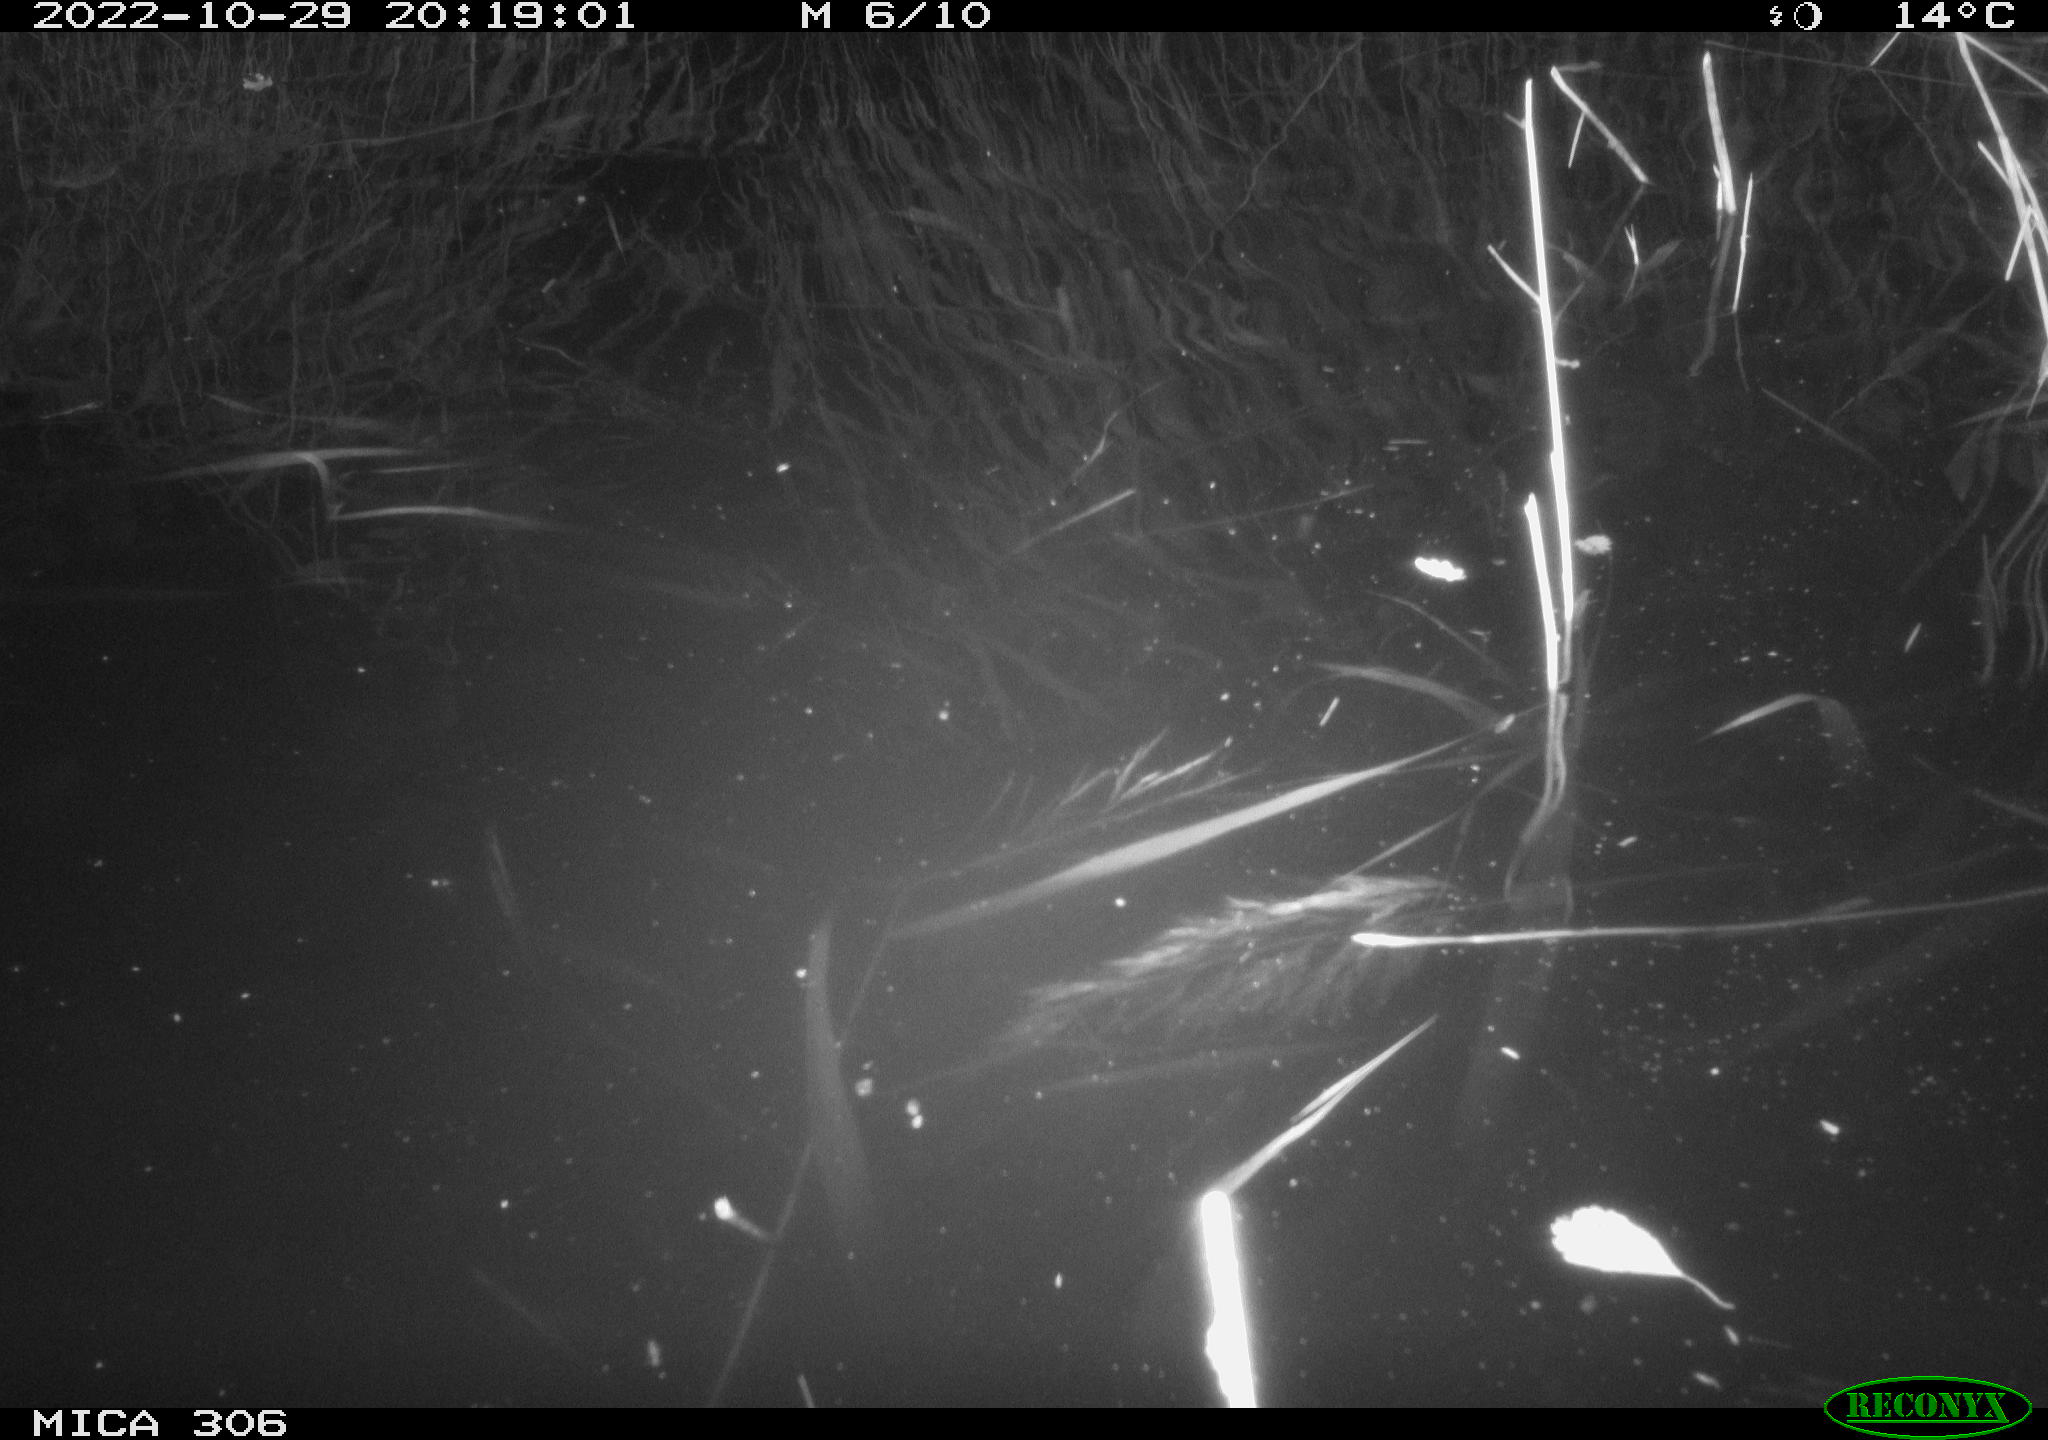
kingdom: Animalia
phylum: Chordata
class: Mammalia
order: Rodentia
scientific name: Rodentia
